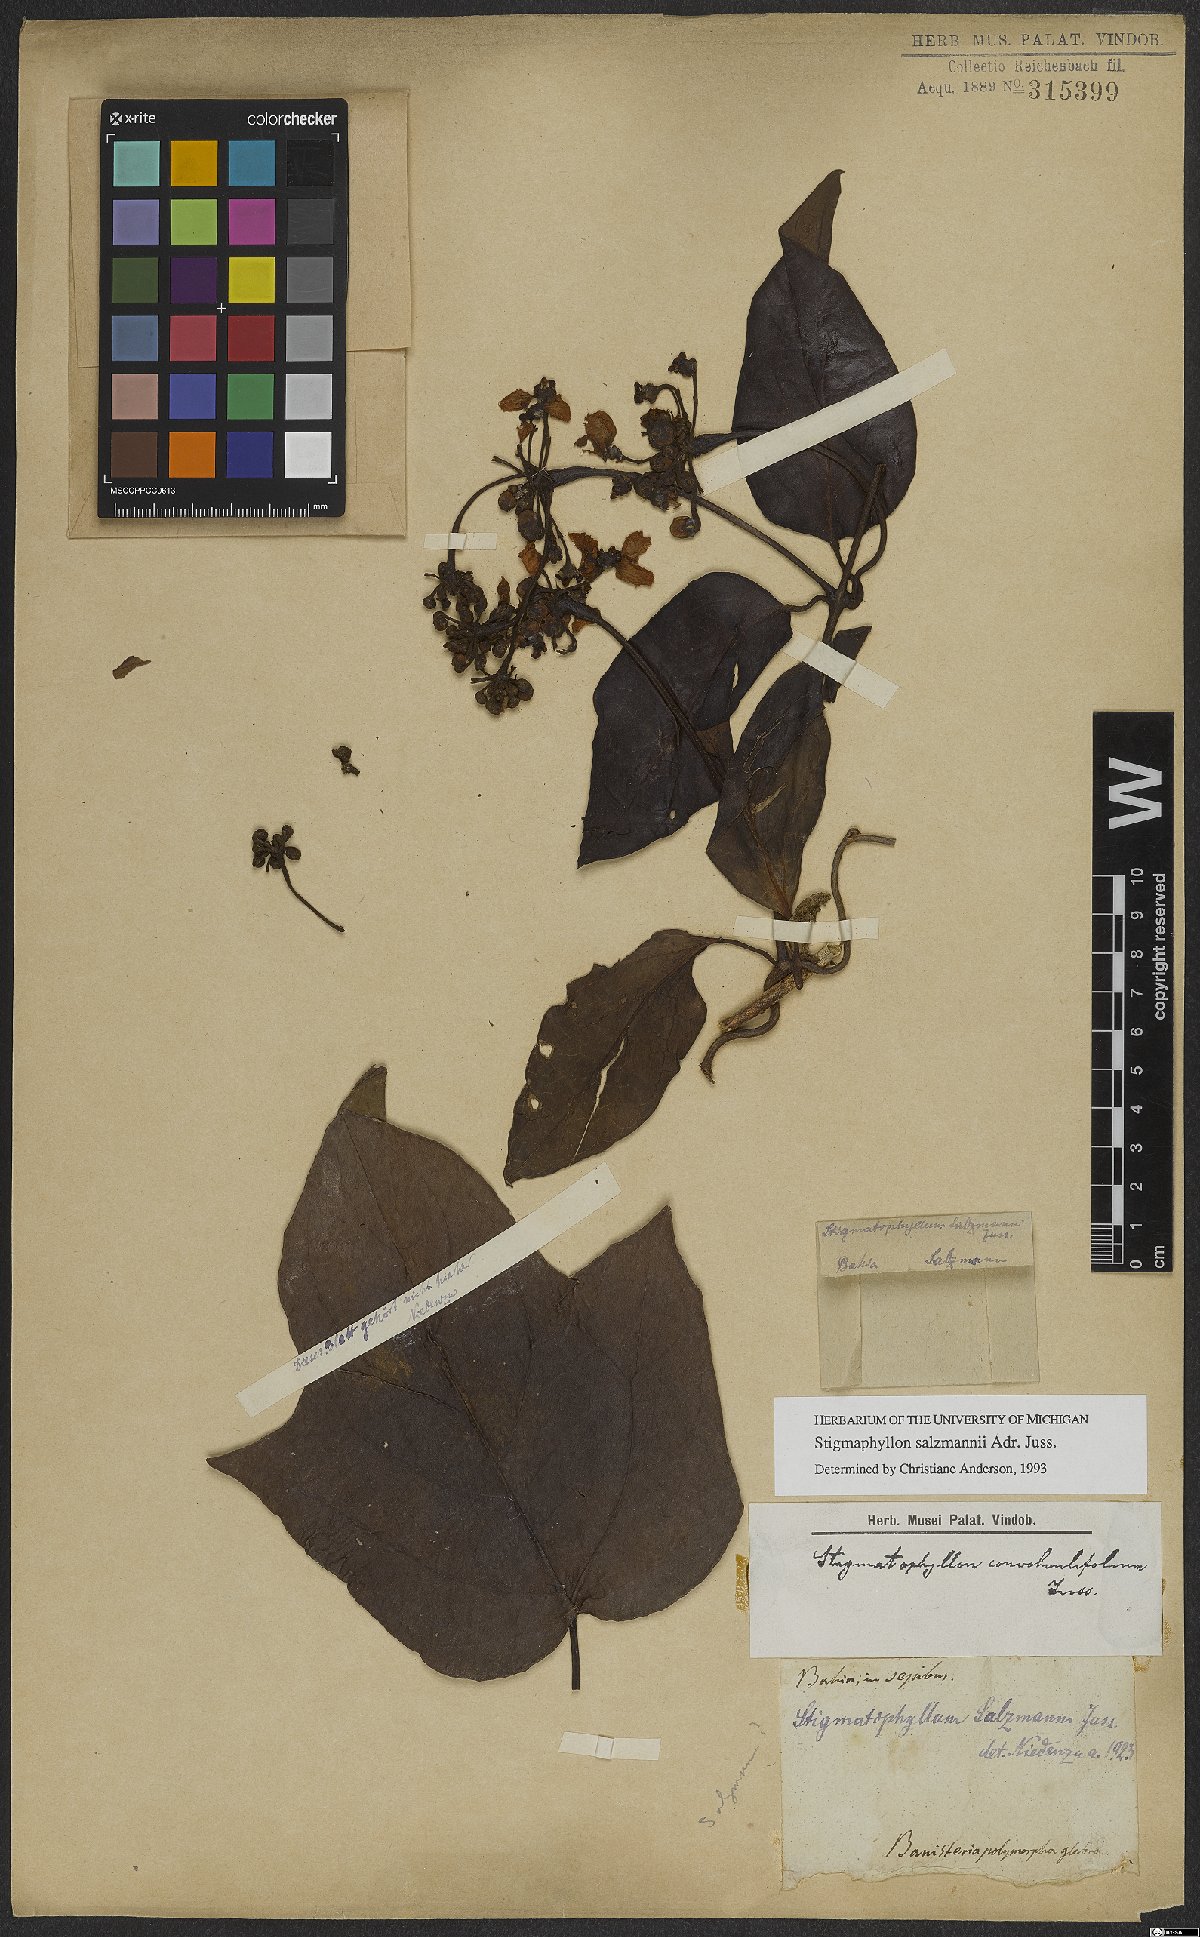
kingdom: Plantae
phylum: Tracheophyta
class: Magnoliopsida
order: Malpighiales
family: Malpighiaceae
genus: Stigmaphyllon
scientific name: Stigmaphyllon salzmannii
